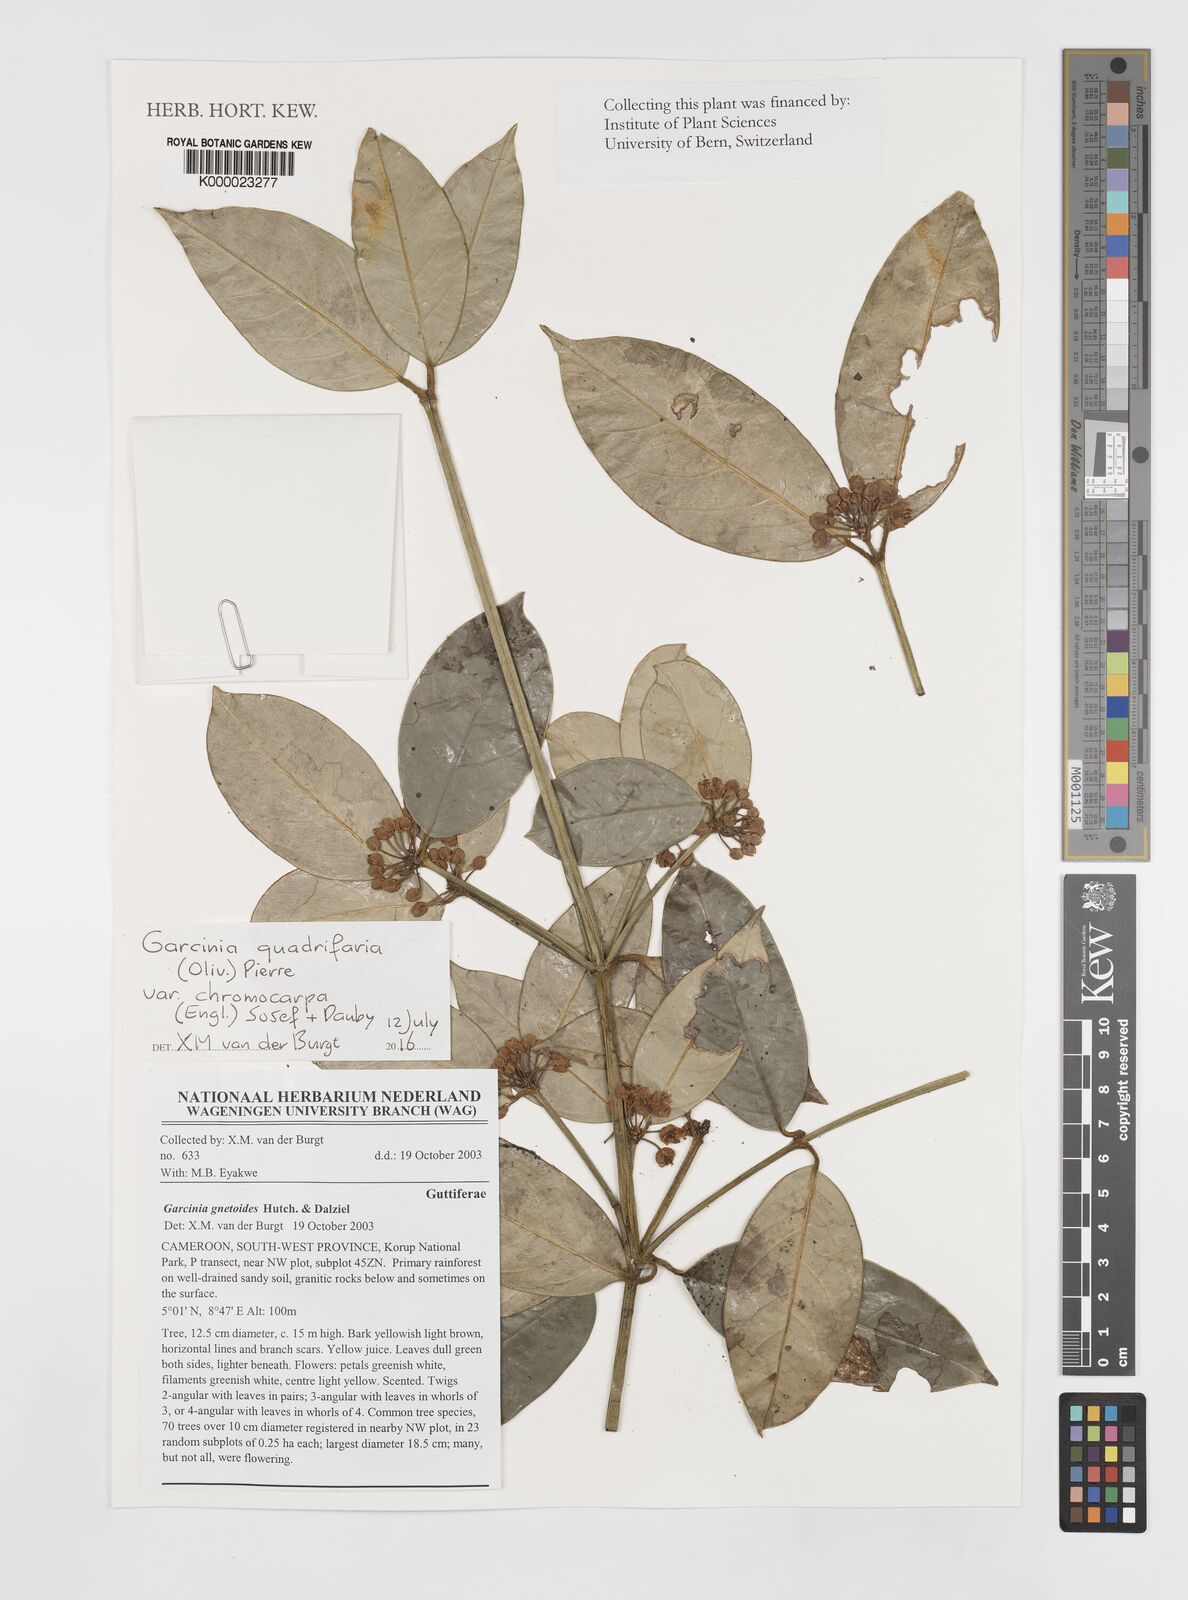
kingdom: Plantae
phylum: Tracheophyta
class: Magnoliopsida
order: Malpighiales
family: Clusiaceae
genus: Garcinia
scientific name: Garcinia gnetoides
